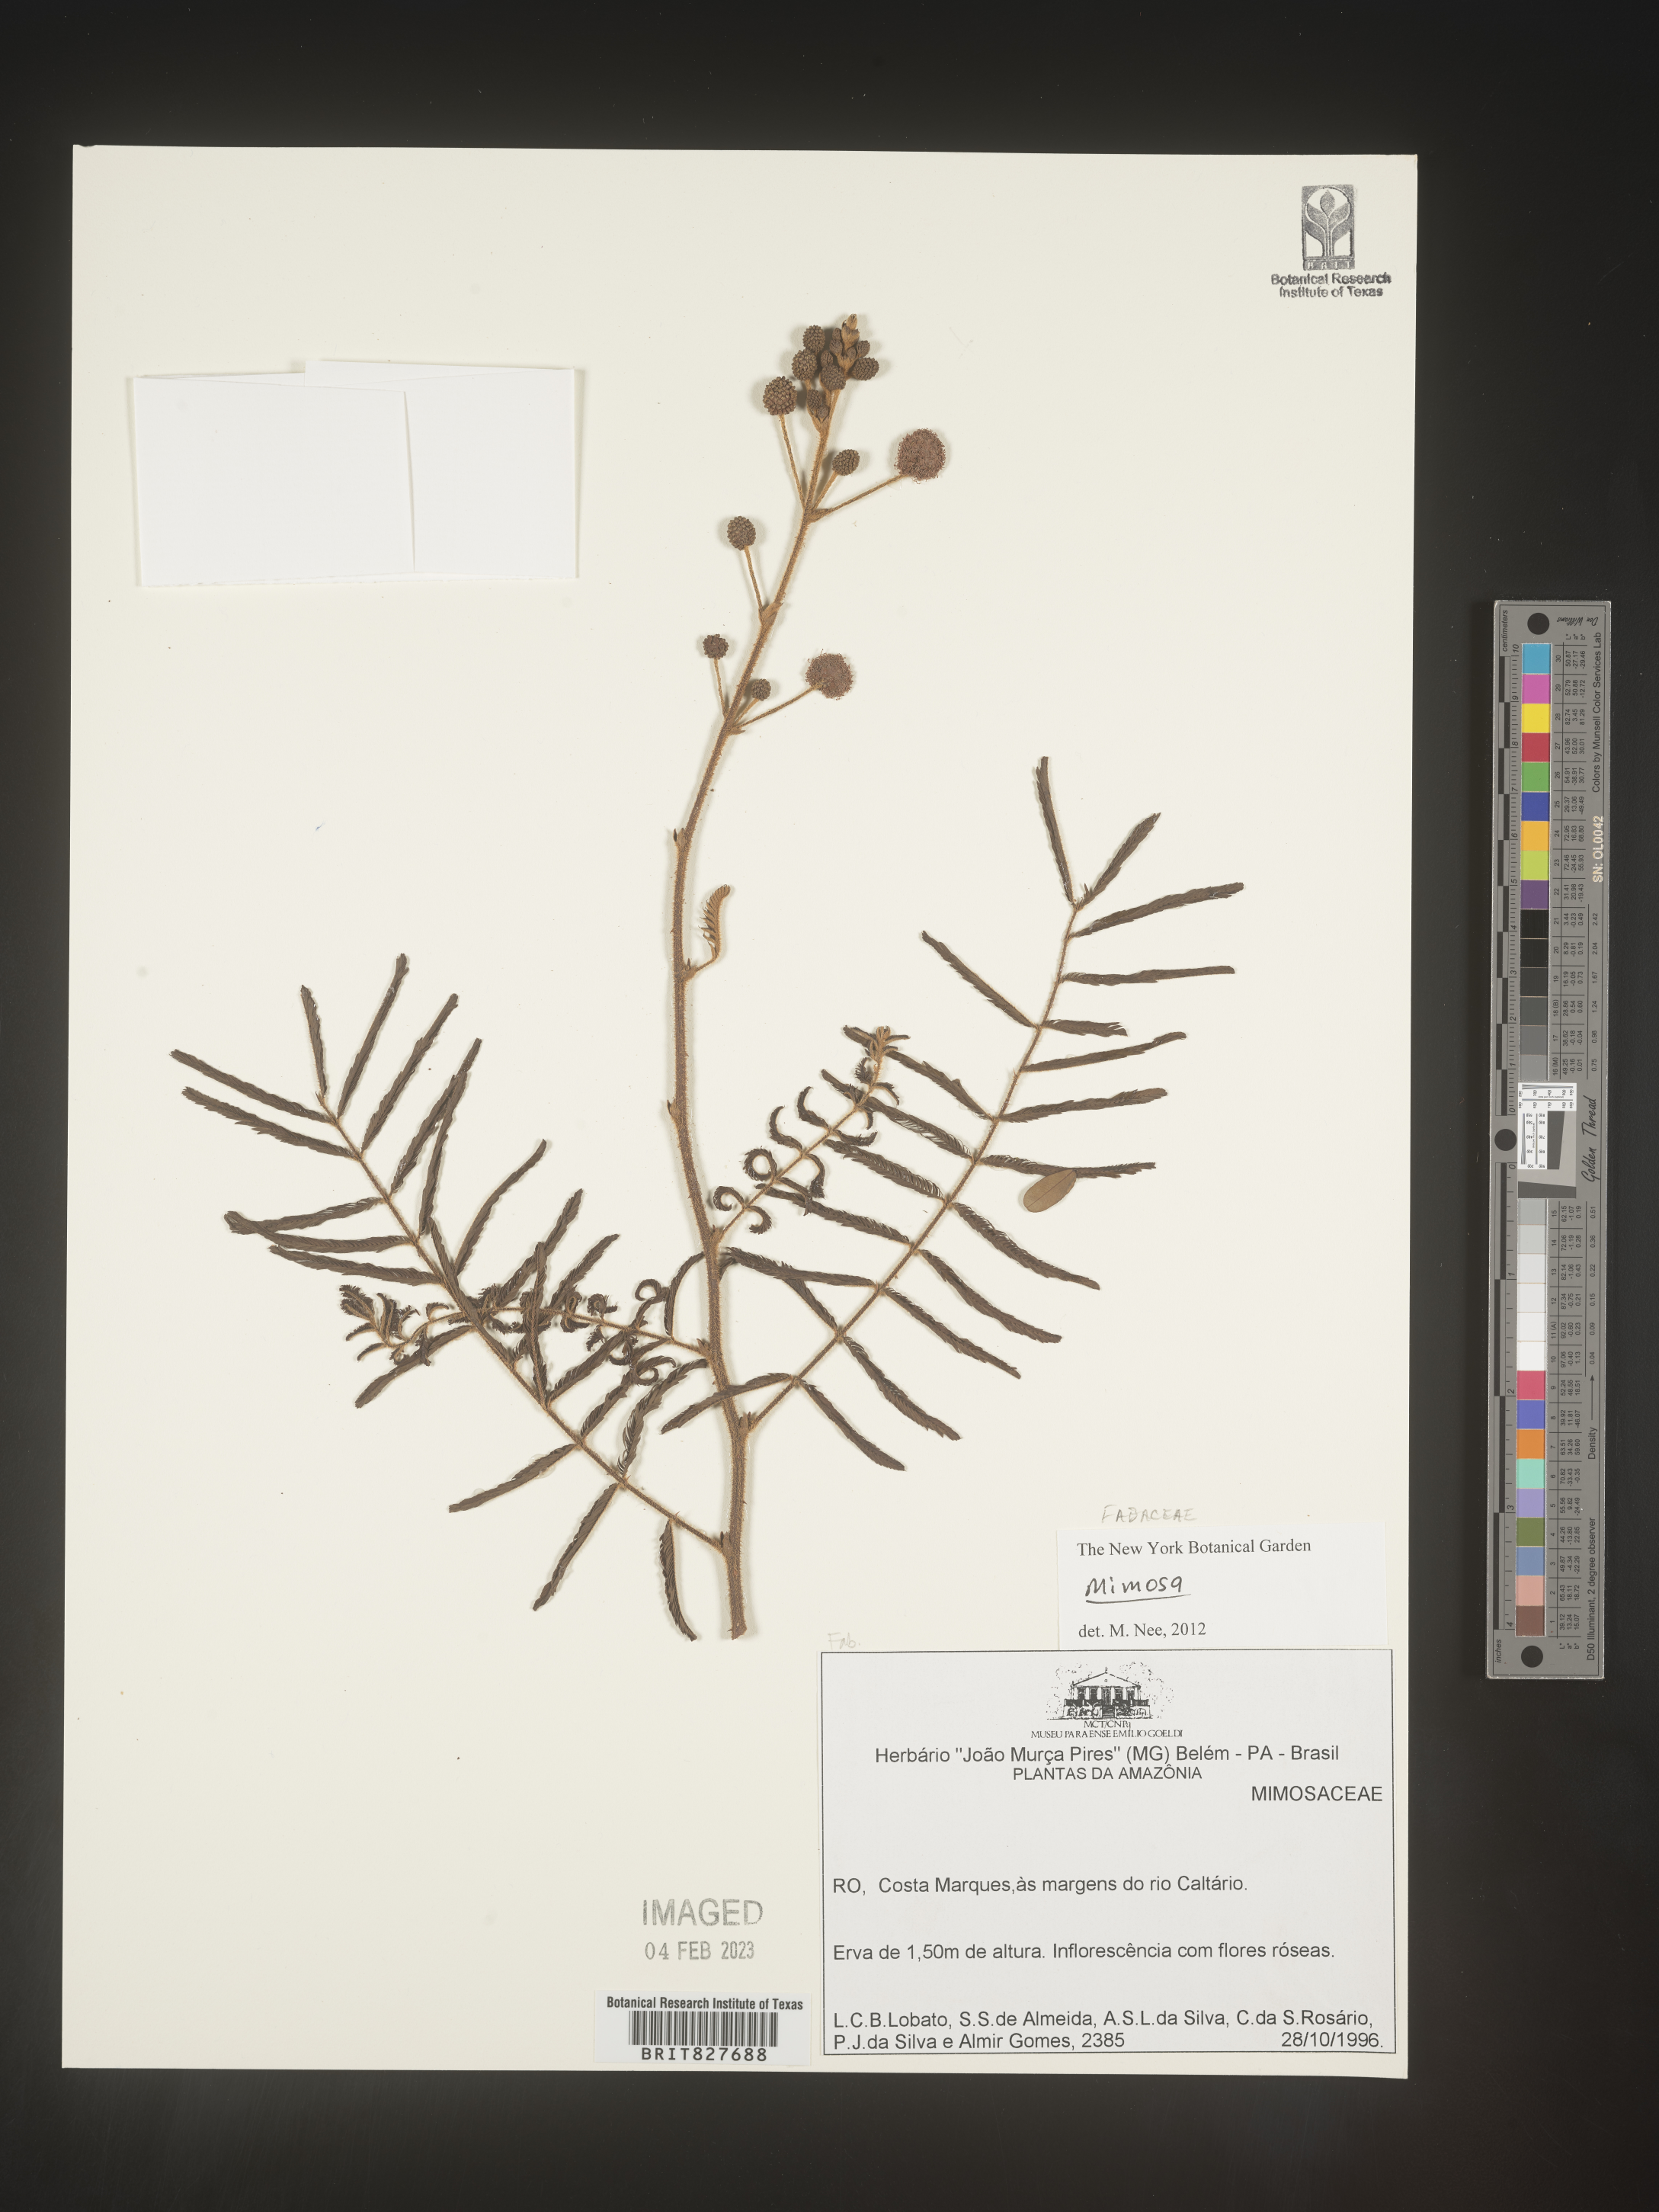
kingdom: Plantae
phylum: Tracheophyta
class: Magnoliopsida
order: Fabales
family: Fabaceae
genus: Mimosa
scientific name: Mimosa
